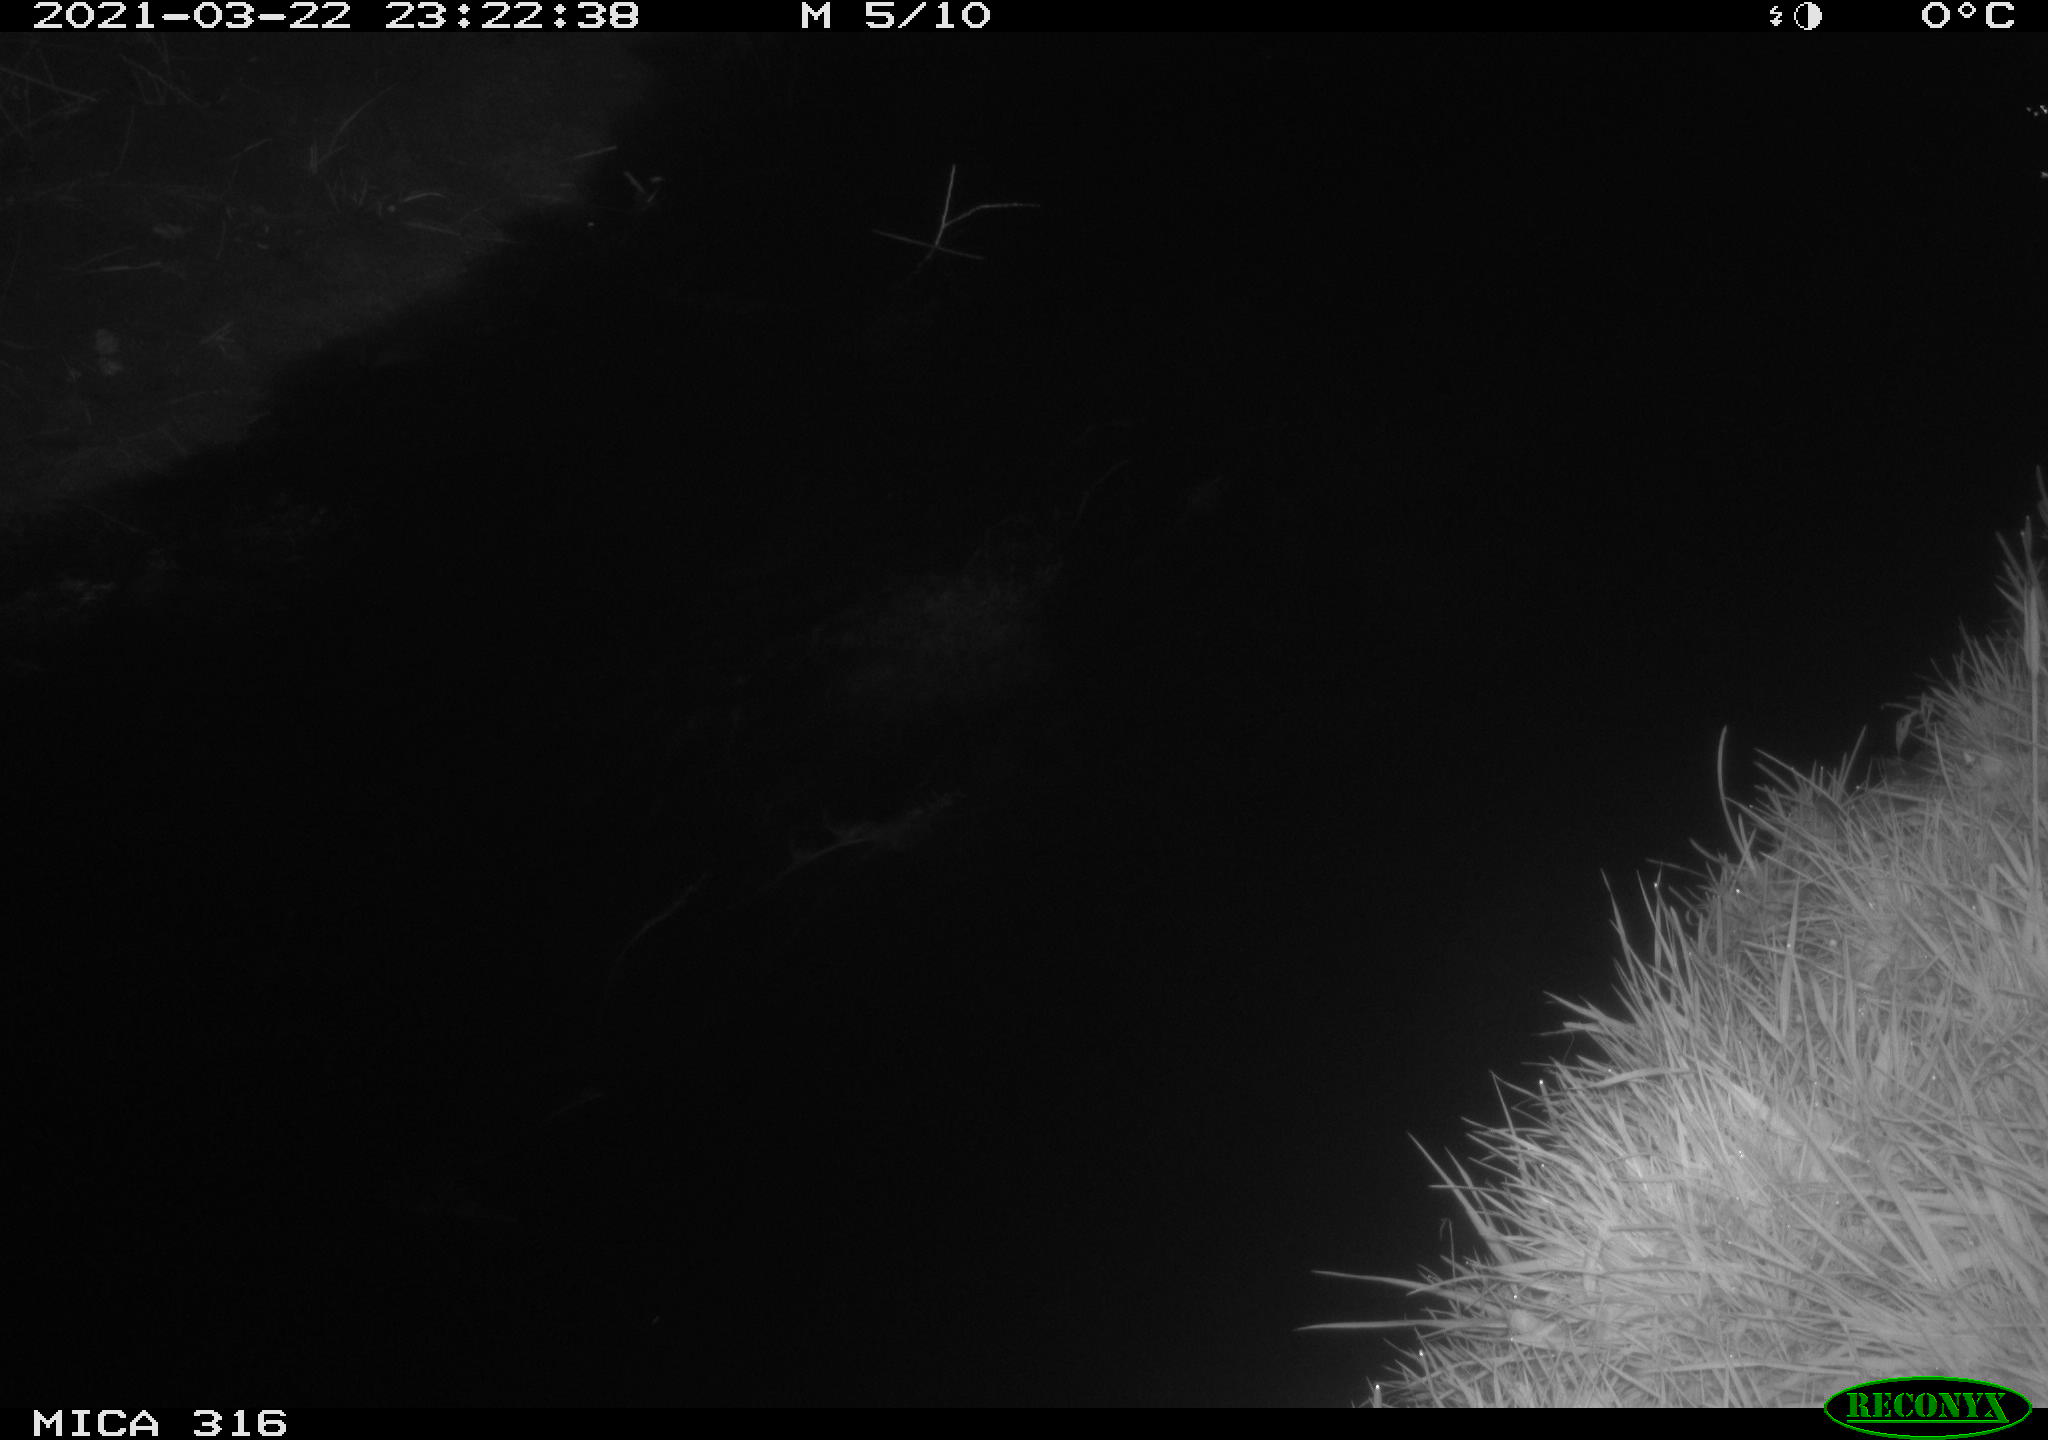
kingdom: Animalia
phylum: Chordata
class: Aves
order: Anseriformes
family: Anatidae
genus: Anas
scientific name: Anas platyrhynchos
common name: Mallard
